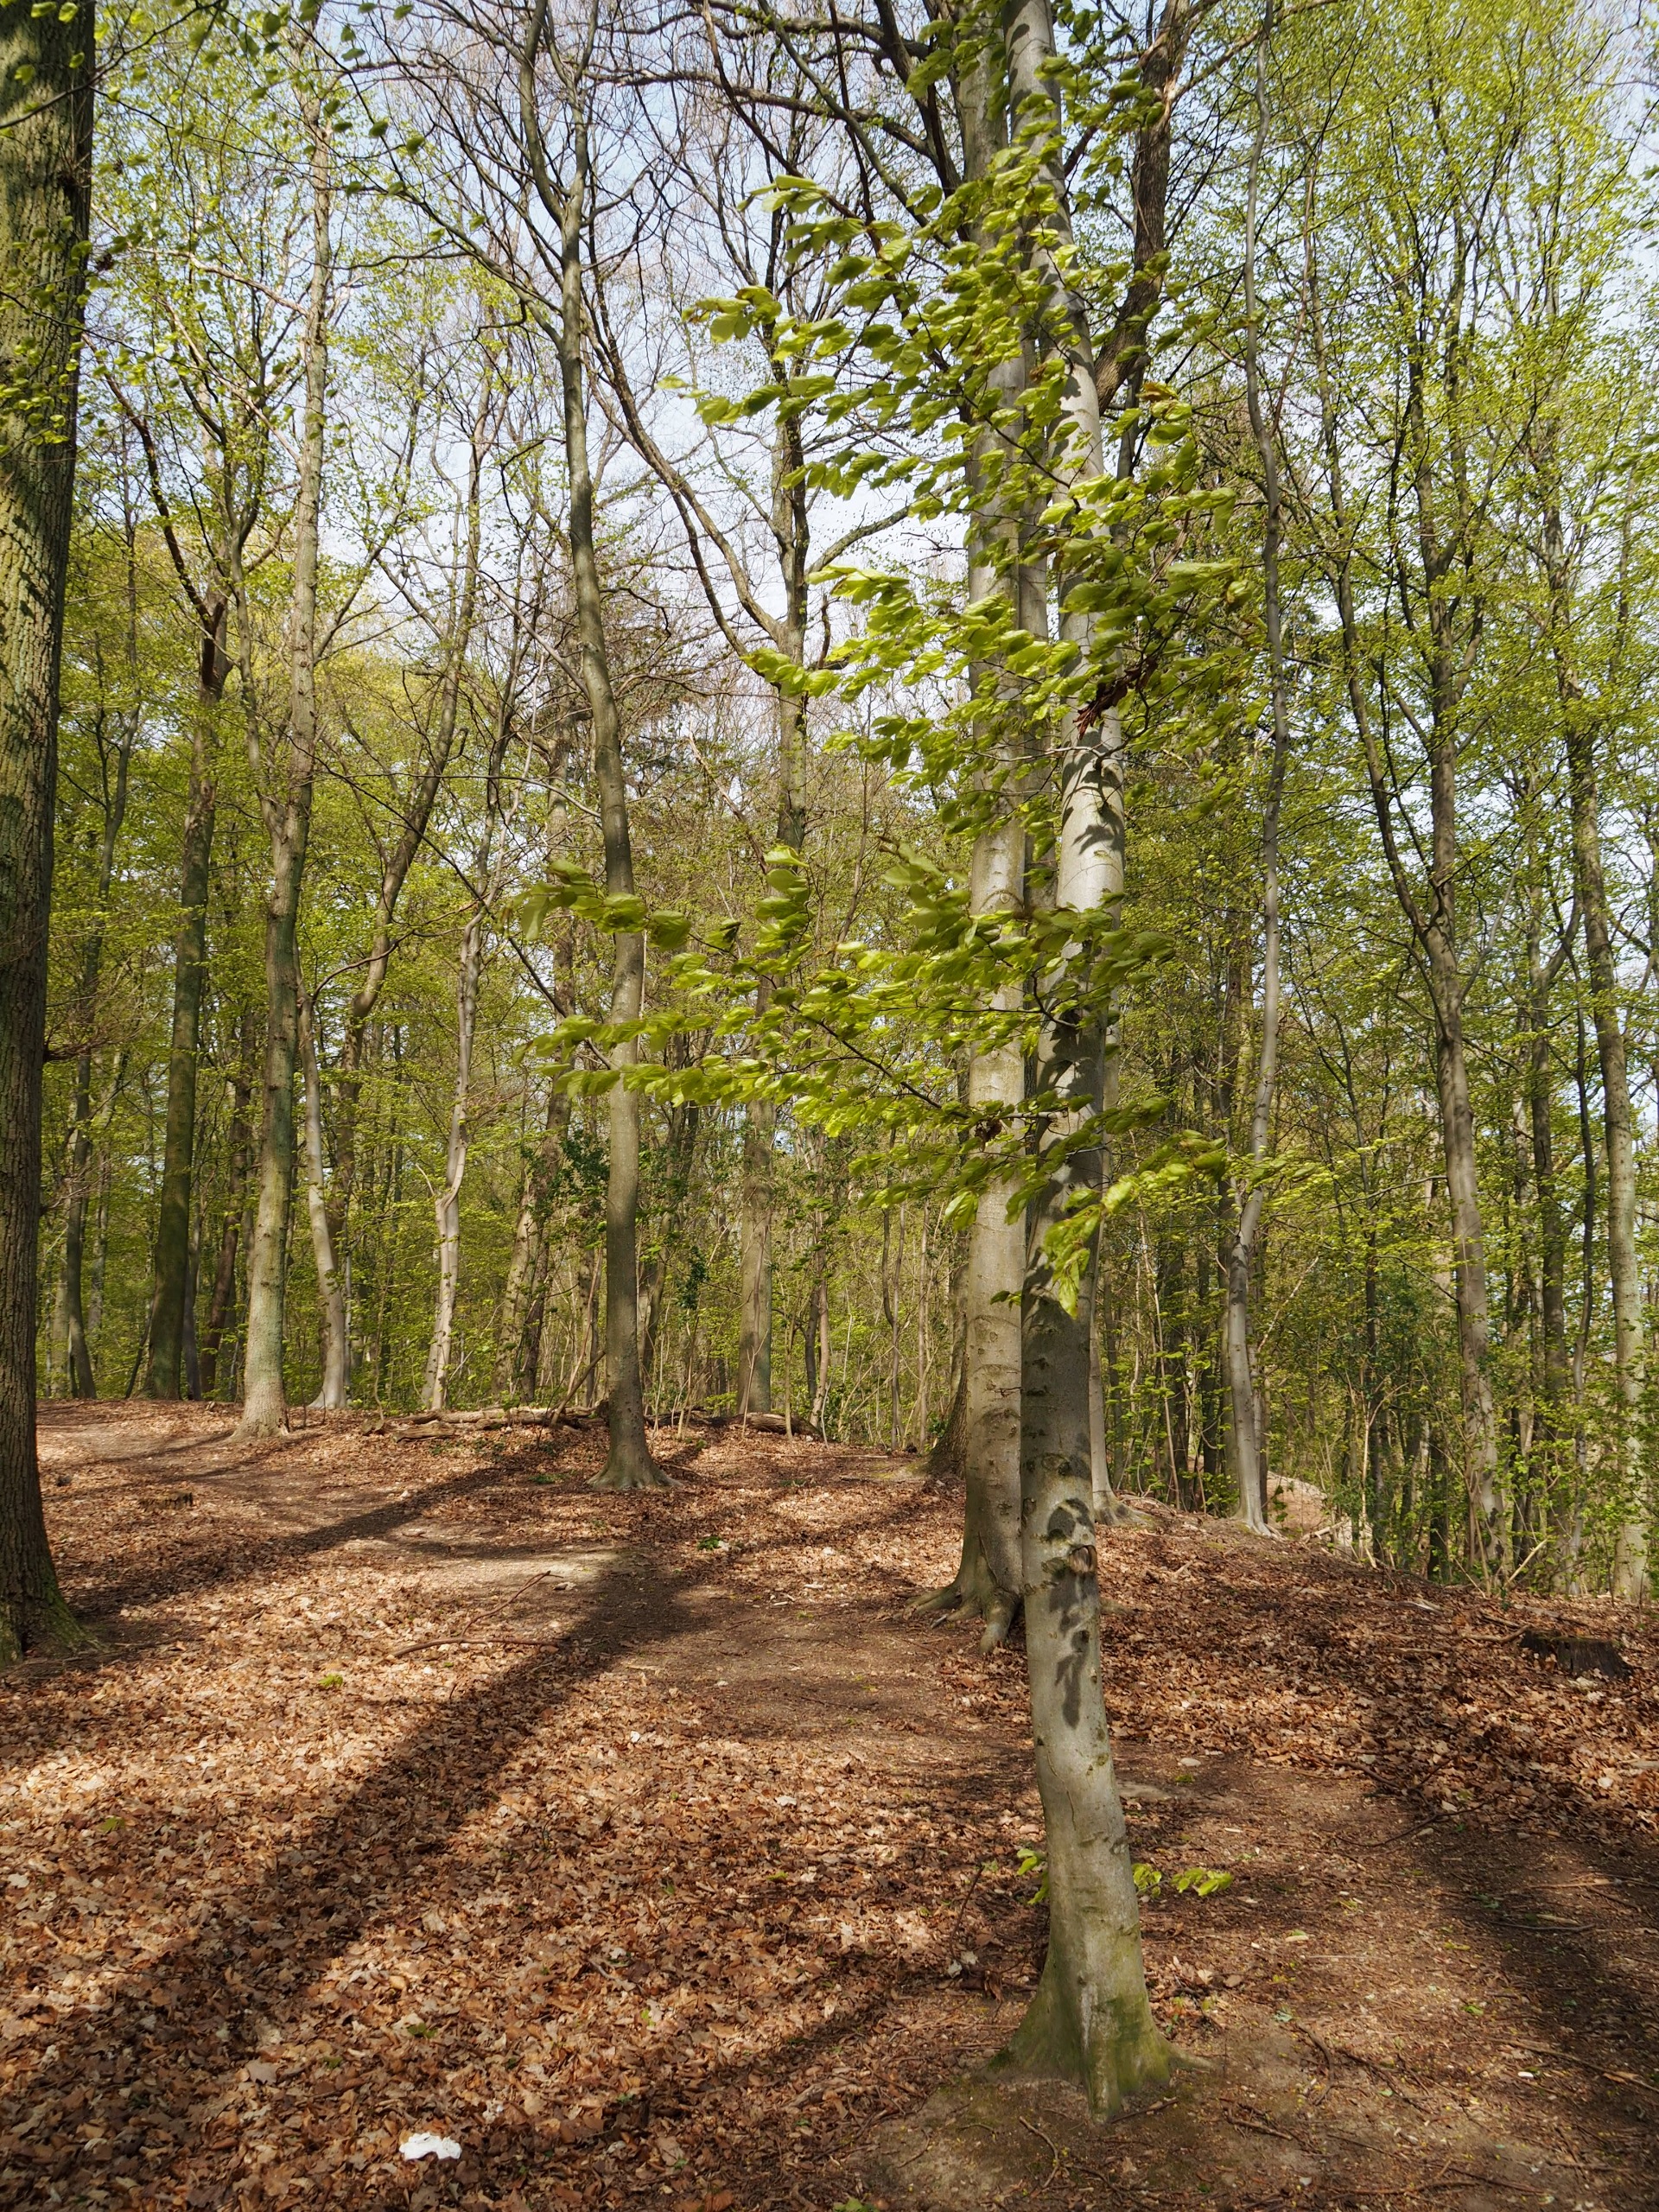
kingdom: Plantae
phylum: Tracheophyta
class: Magnoliopsida
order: Fagales
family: Fagaceae
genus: Fagus
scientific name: Fagus sylvatica
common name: Bøg
